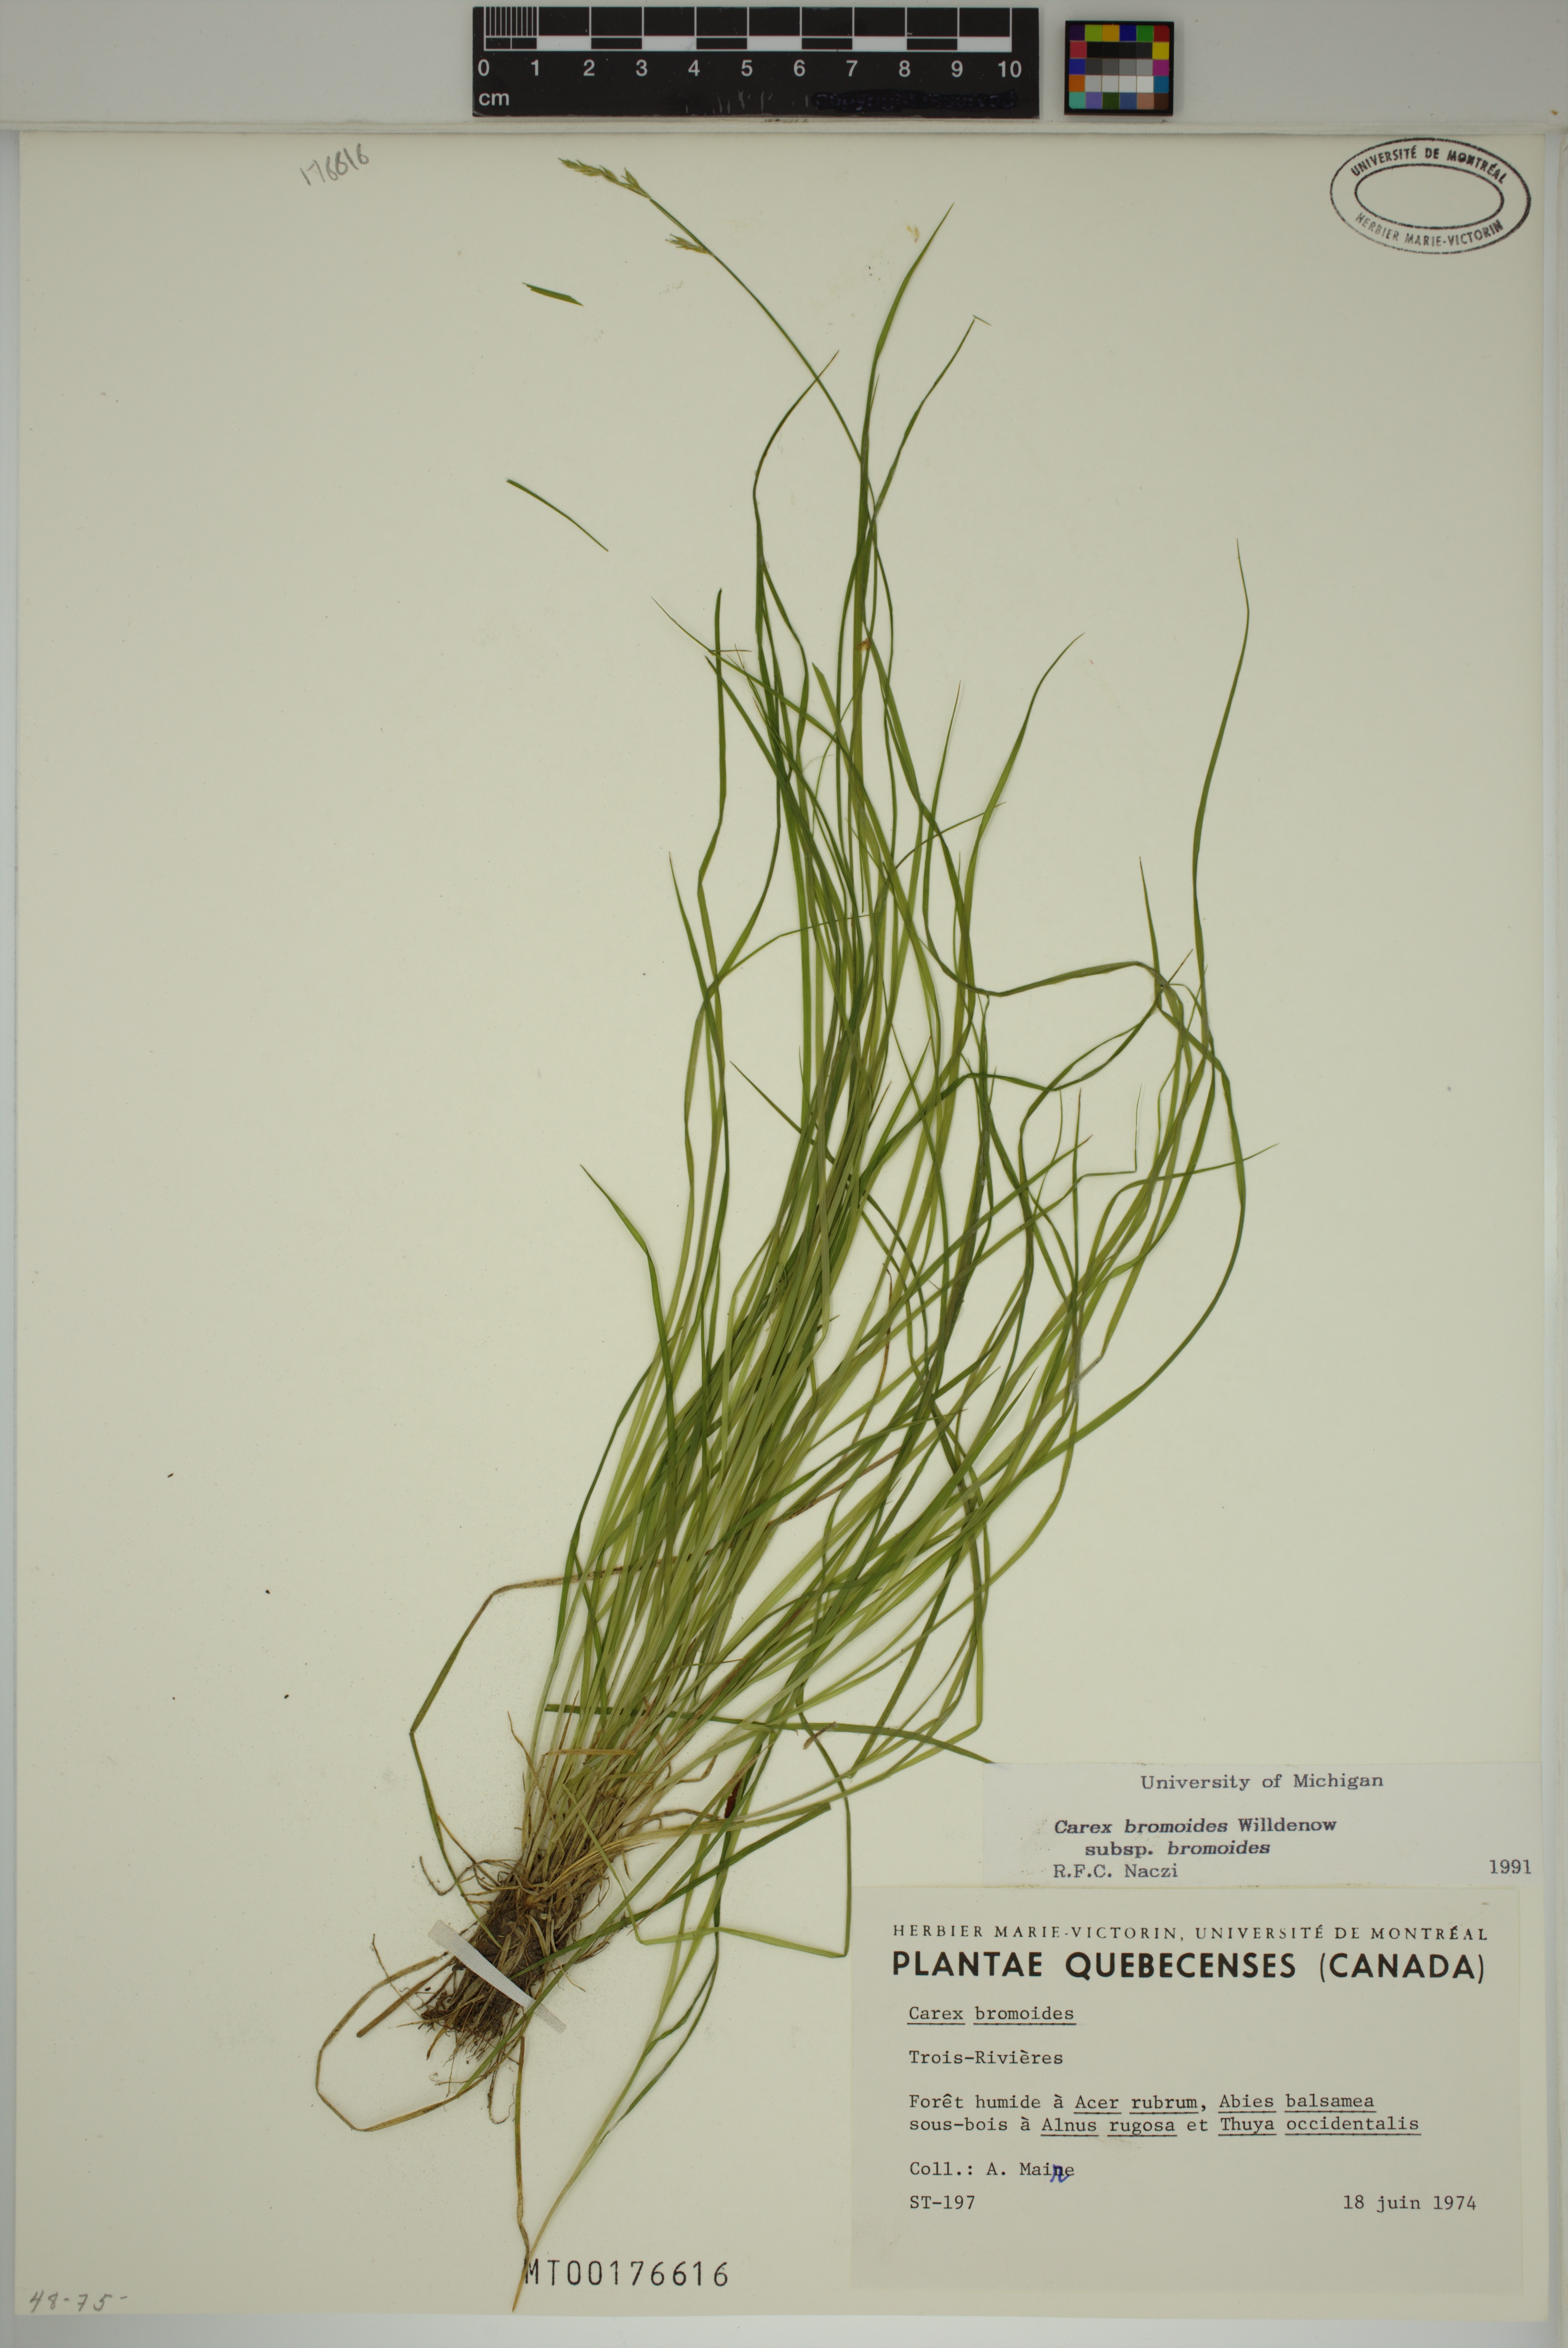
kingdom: Plantae
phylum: Tracheophyta
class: Liliopsida
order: Poales
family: Cyperaceae
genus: Carex
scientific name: Carex bromoides
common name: Brome hummock sedge
